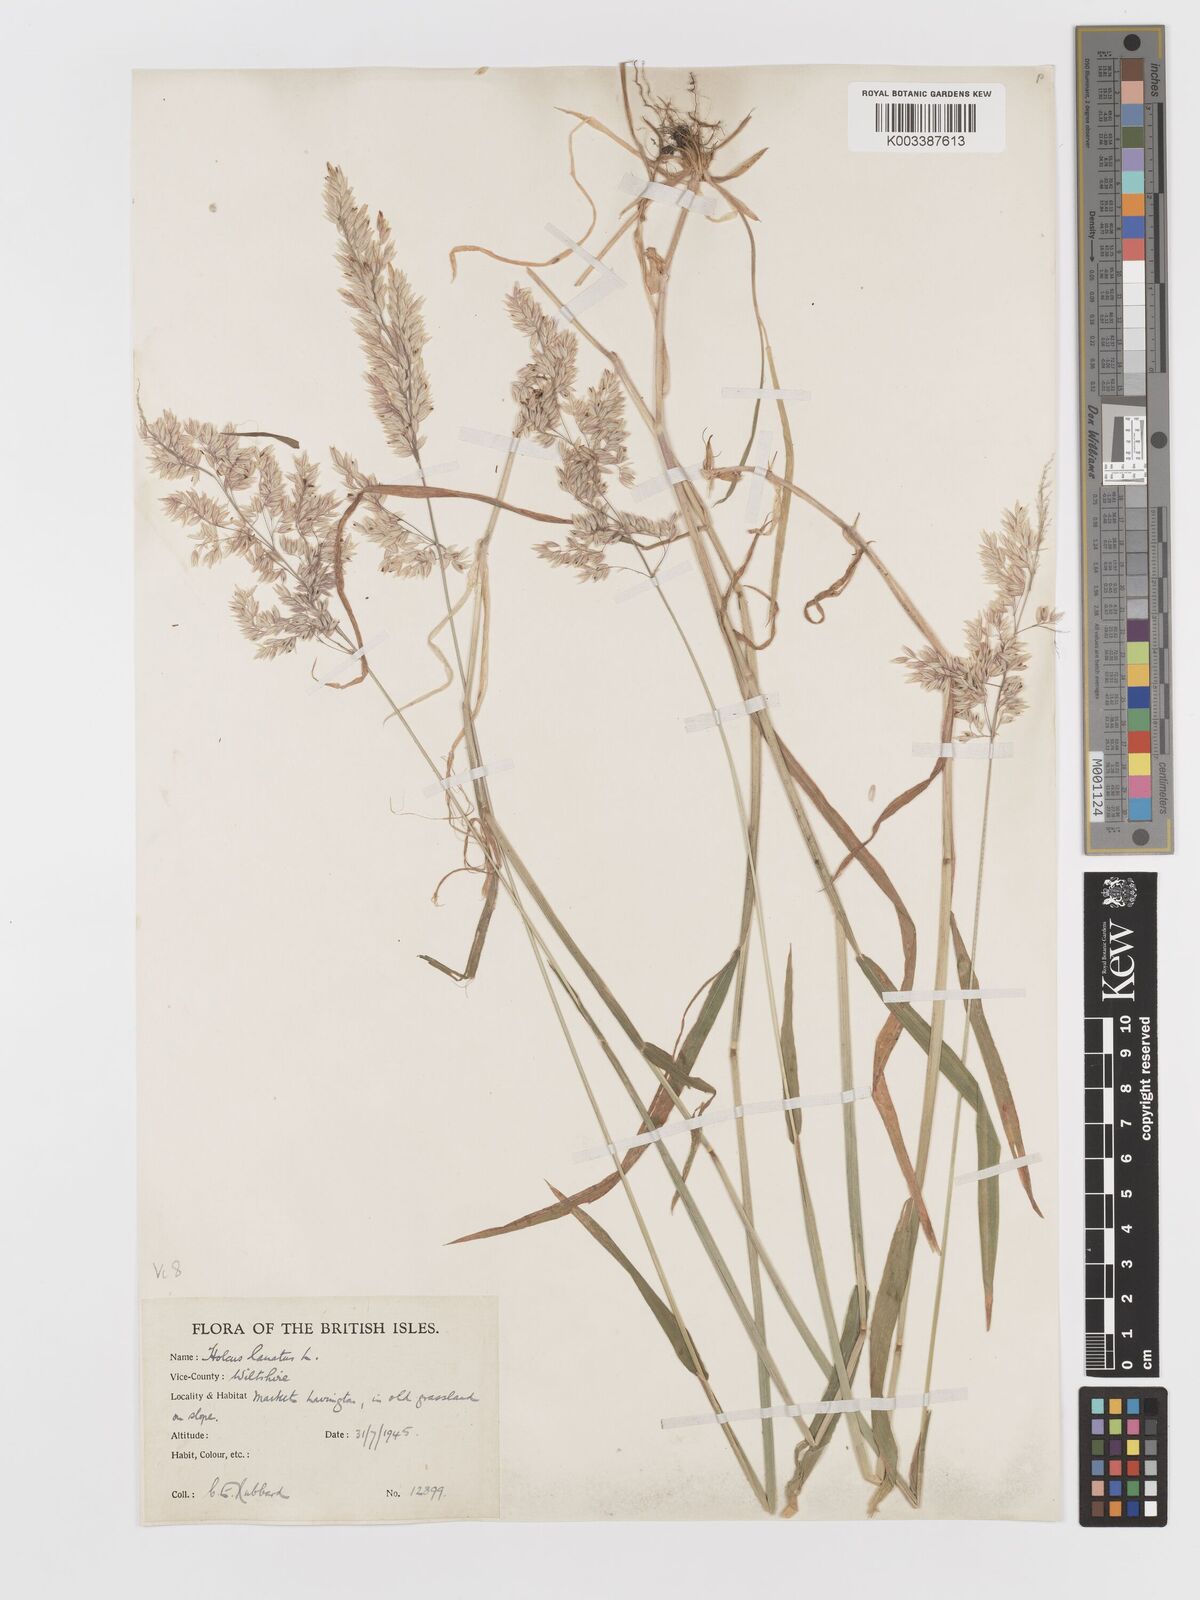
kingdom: Plantae
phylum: Tracheophyta
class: Liliopsida
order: Poales
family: Poaceae
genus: Holcus
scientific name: Holcus lanatus
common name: Yorkshire-fog
